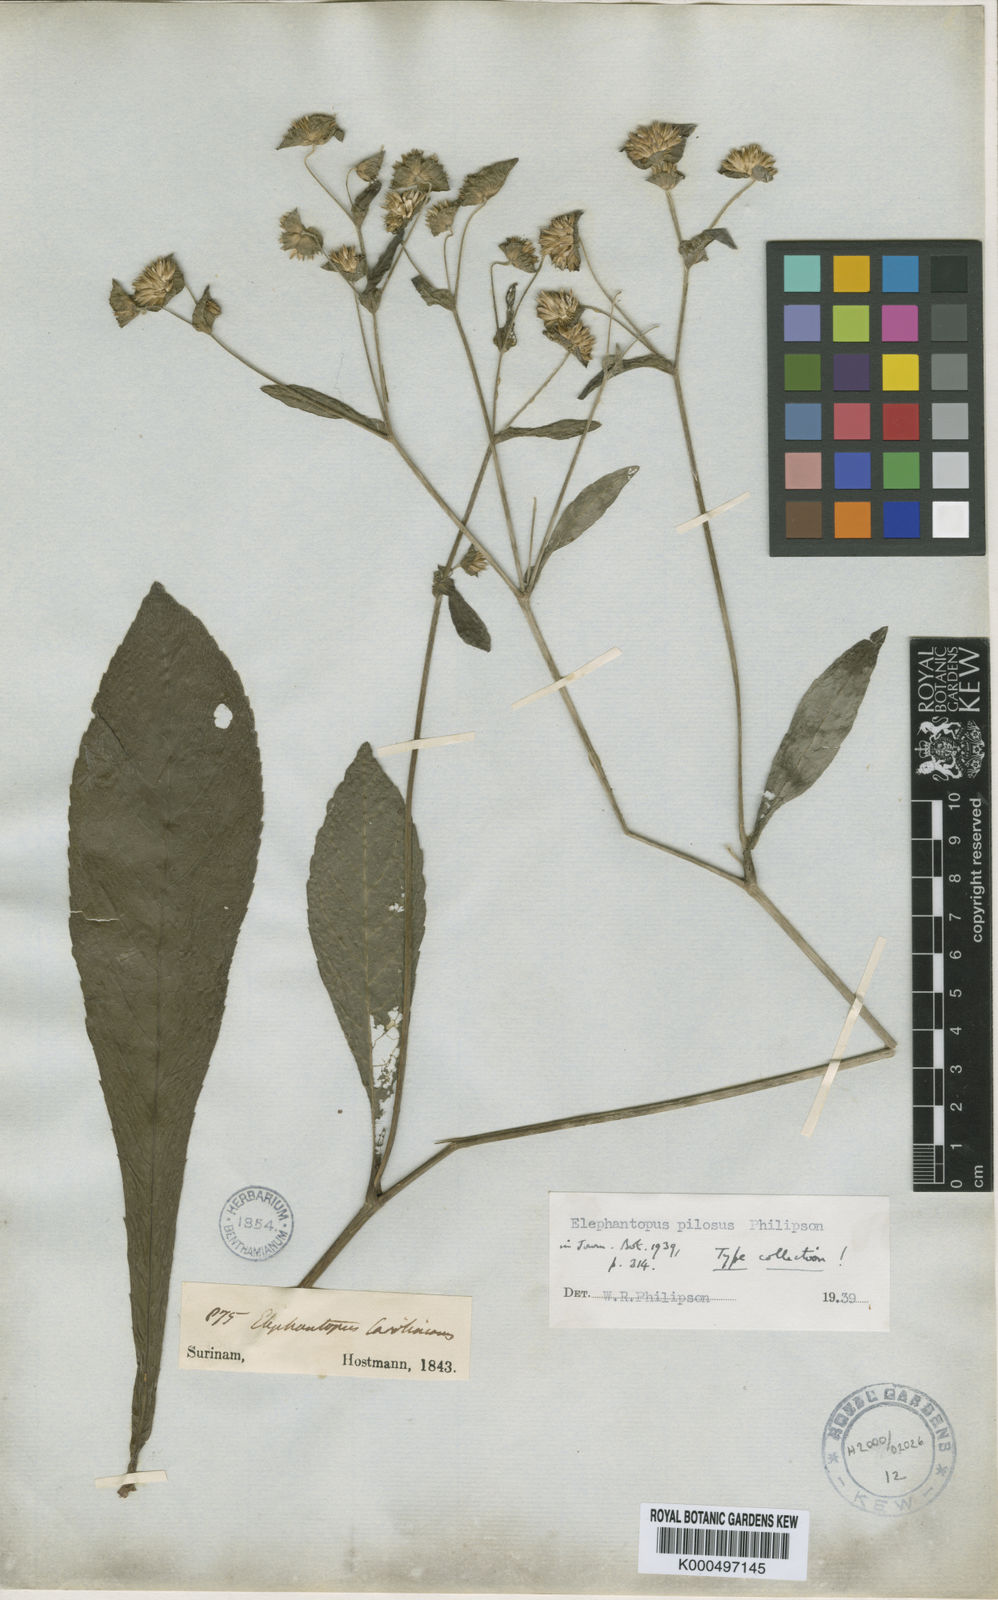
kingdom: Plantae
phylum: Tracheophyta
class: Magnoliopsida
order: Asterales
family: Asteraceae
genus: Elephantopus
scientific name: Elephantopus mollis
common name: Soft elephantsfoot
